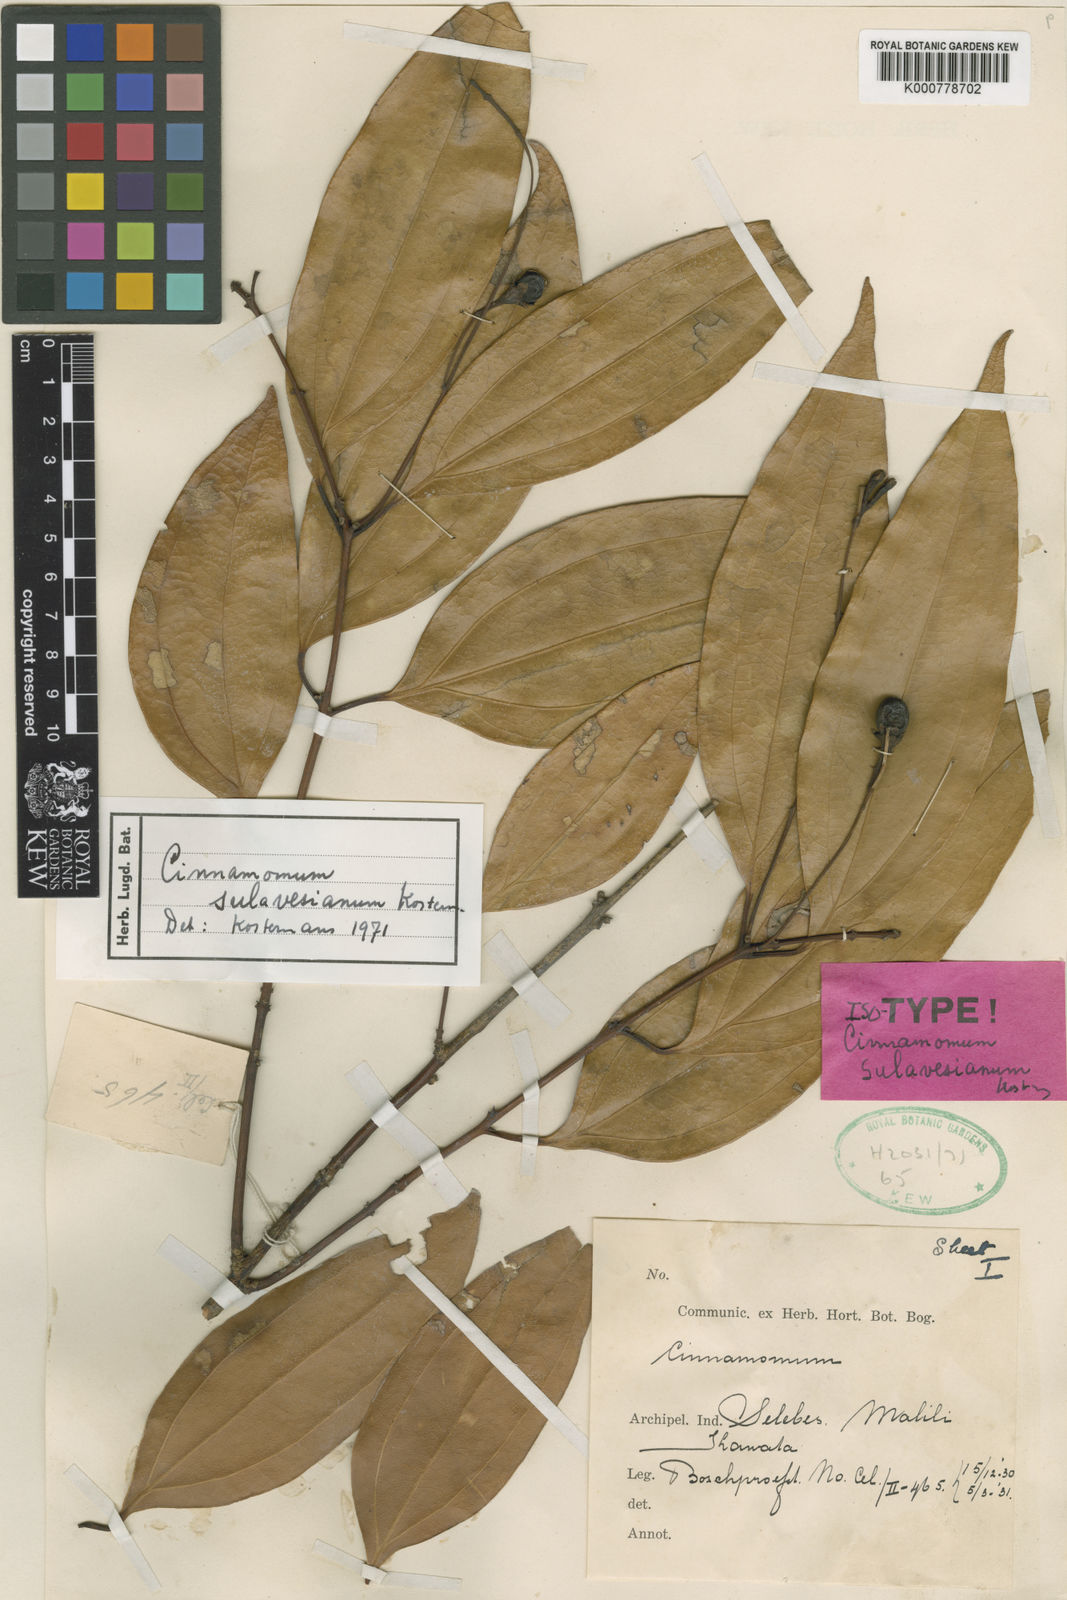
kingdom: Plantae
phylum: Tracheophyta
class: Magnoliopsida
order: Laurales
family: Lauraceae
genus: Cinnamomum
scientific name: Cinnamomum sulavesianum
